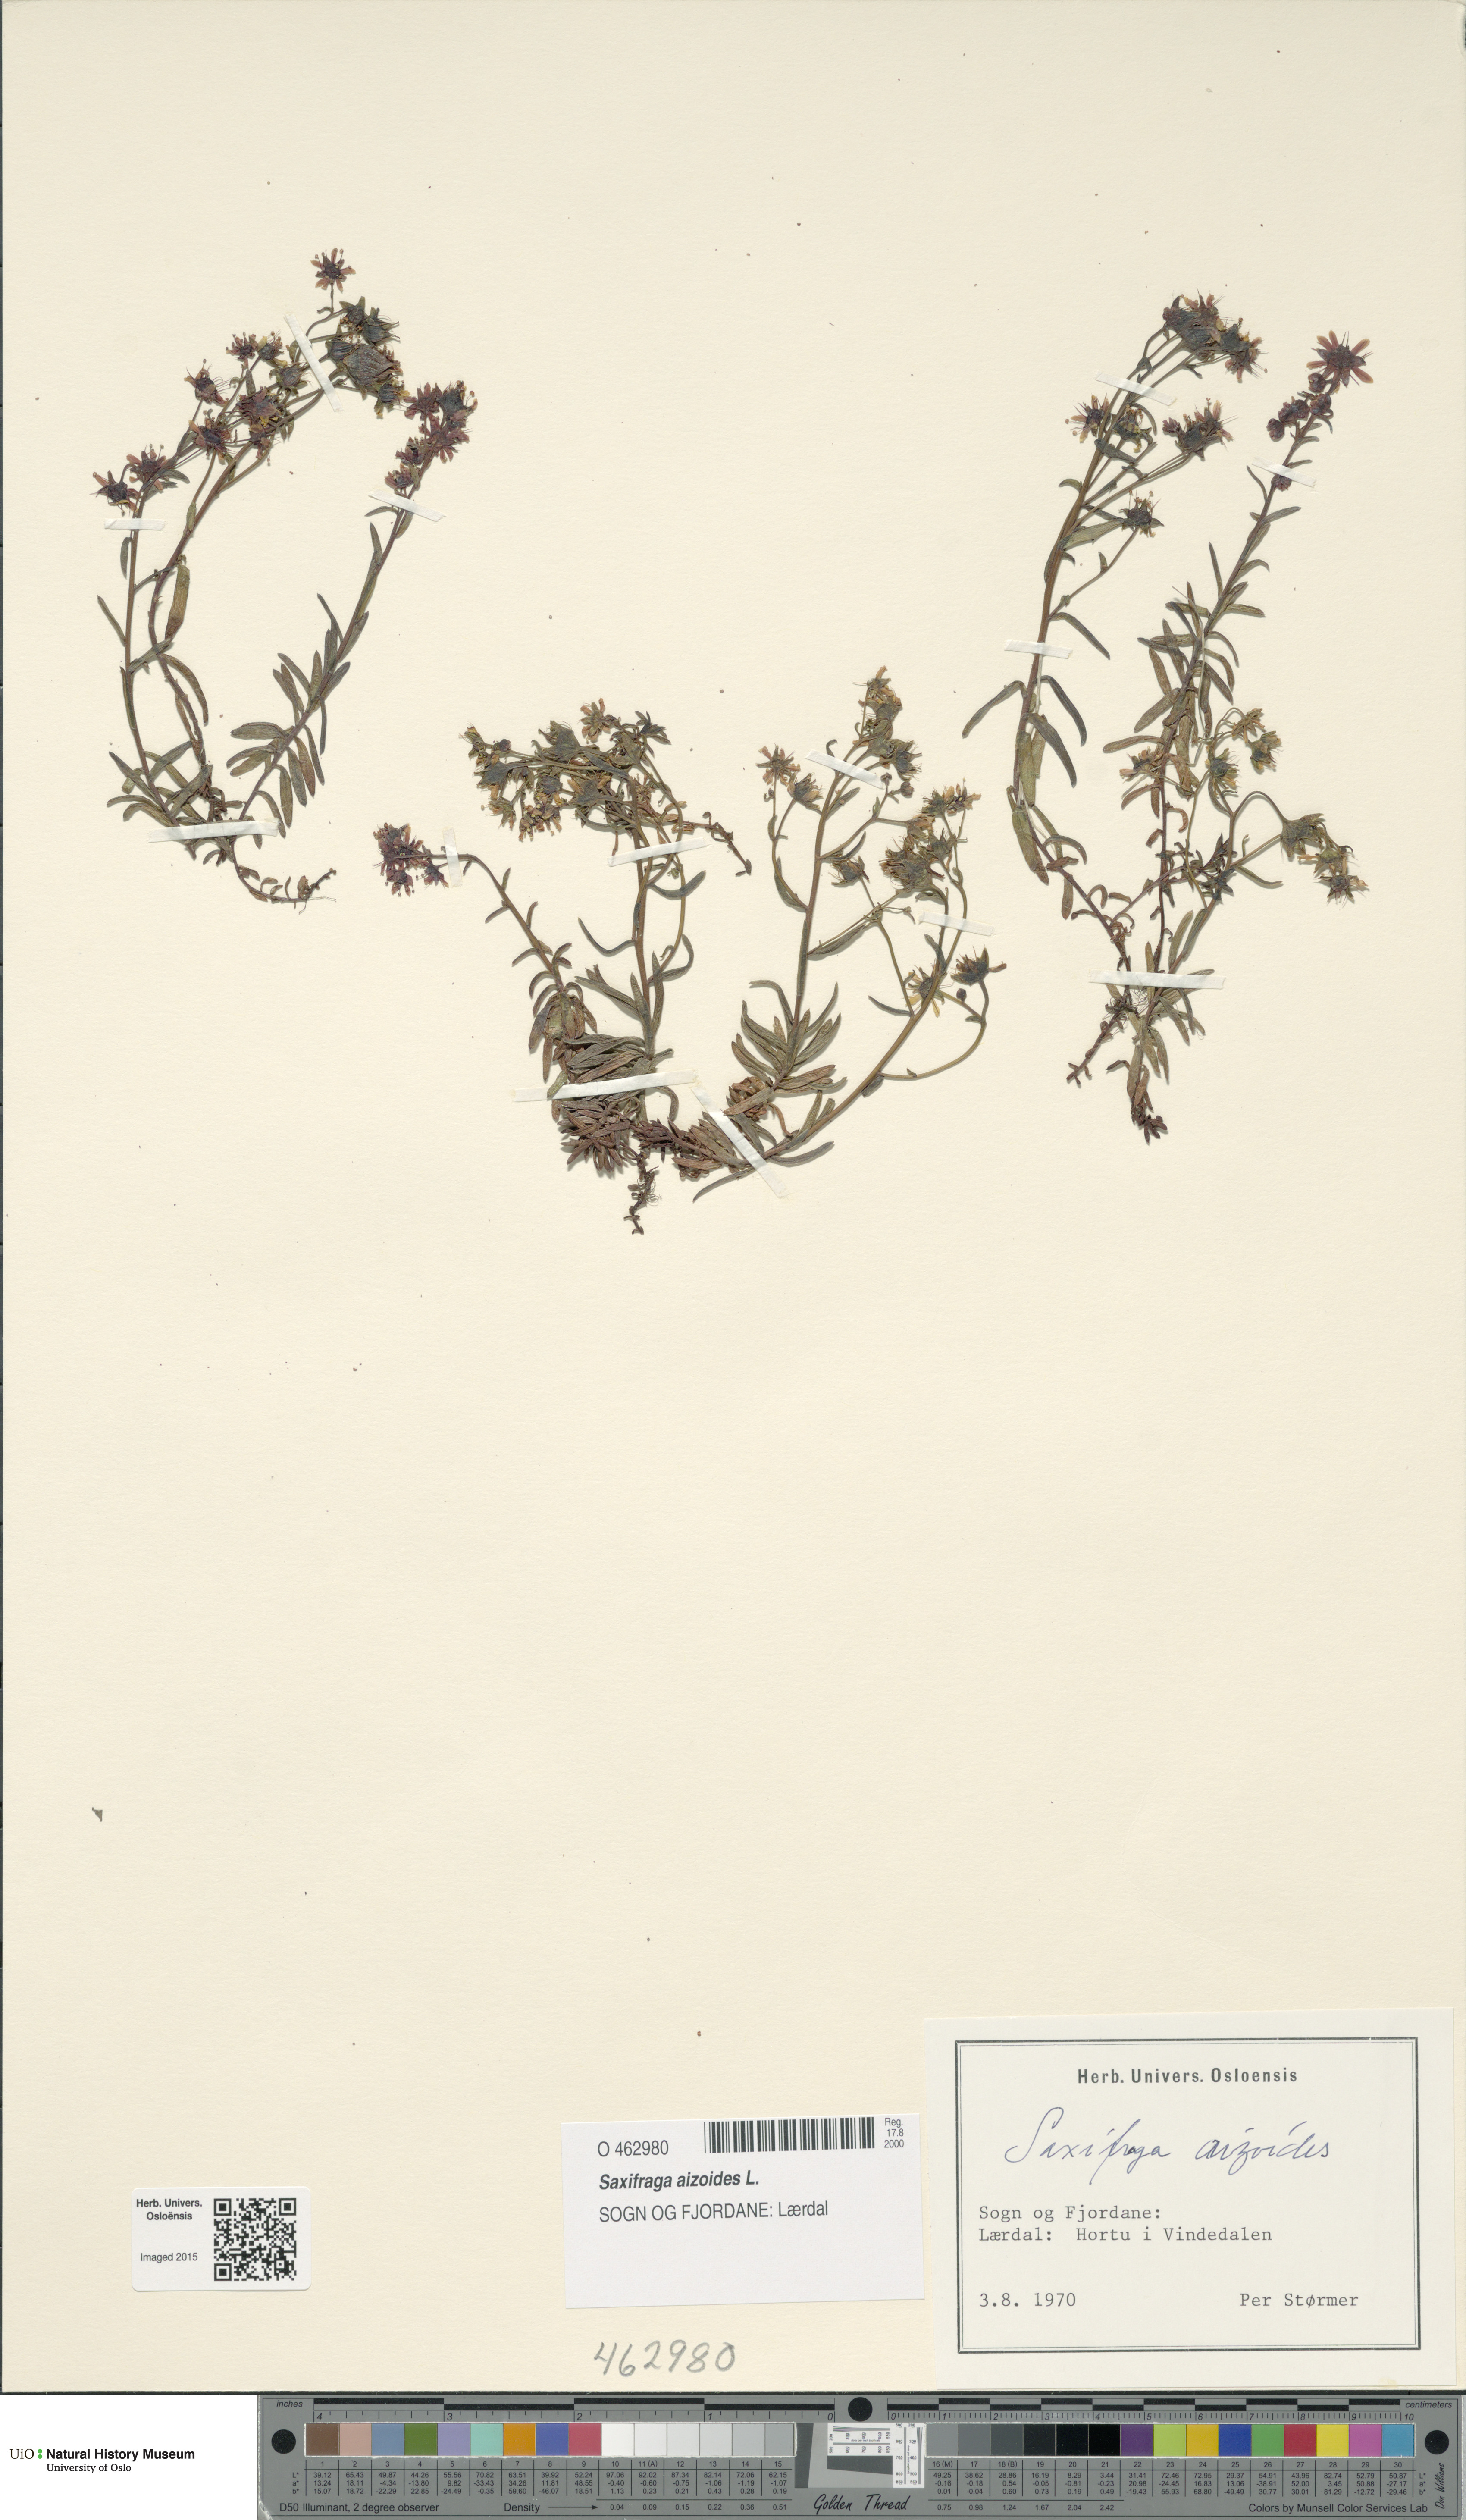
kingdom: Plantae
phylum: Tracheophyta
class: Magnoliopsida
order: Saxifragales
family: Saxifragaceae
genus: Saxifraga
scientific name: Saxifraga aizoides
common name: Yellow mountain saxifrage
